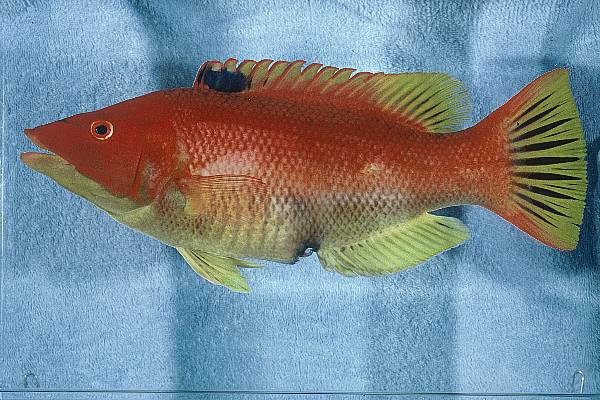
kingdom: Animalia
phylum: Chordata
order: Perciformes
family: Labridae
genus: Bodianus
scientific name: Bodianus scrofa
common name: Barred hogfish
